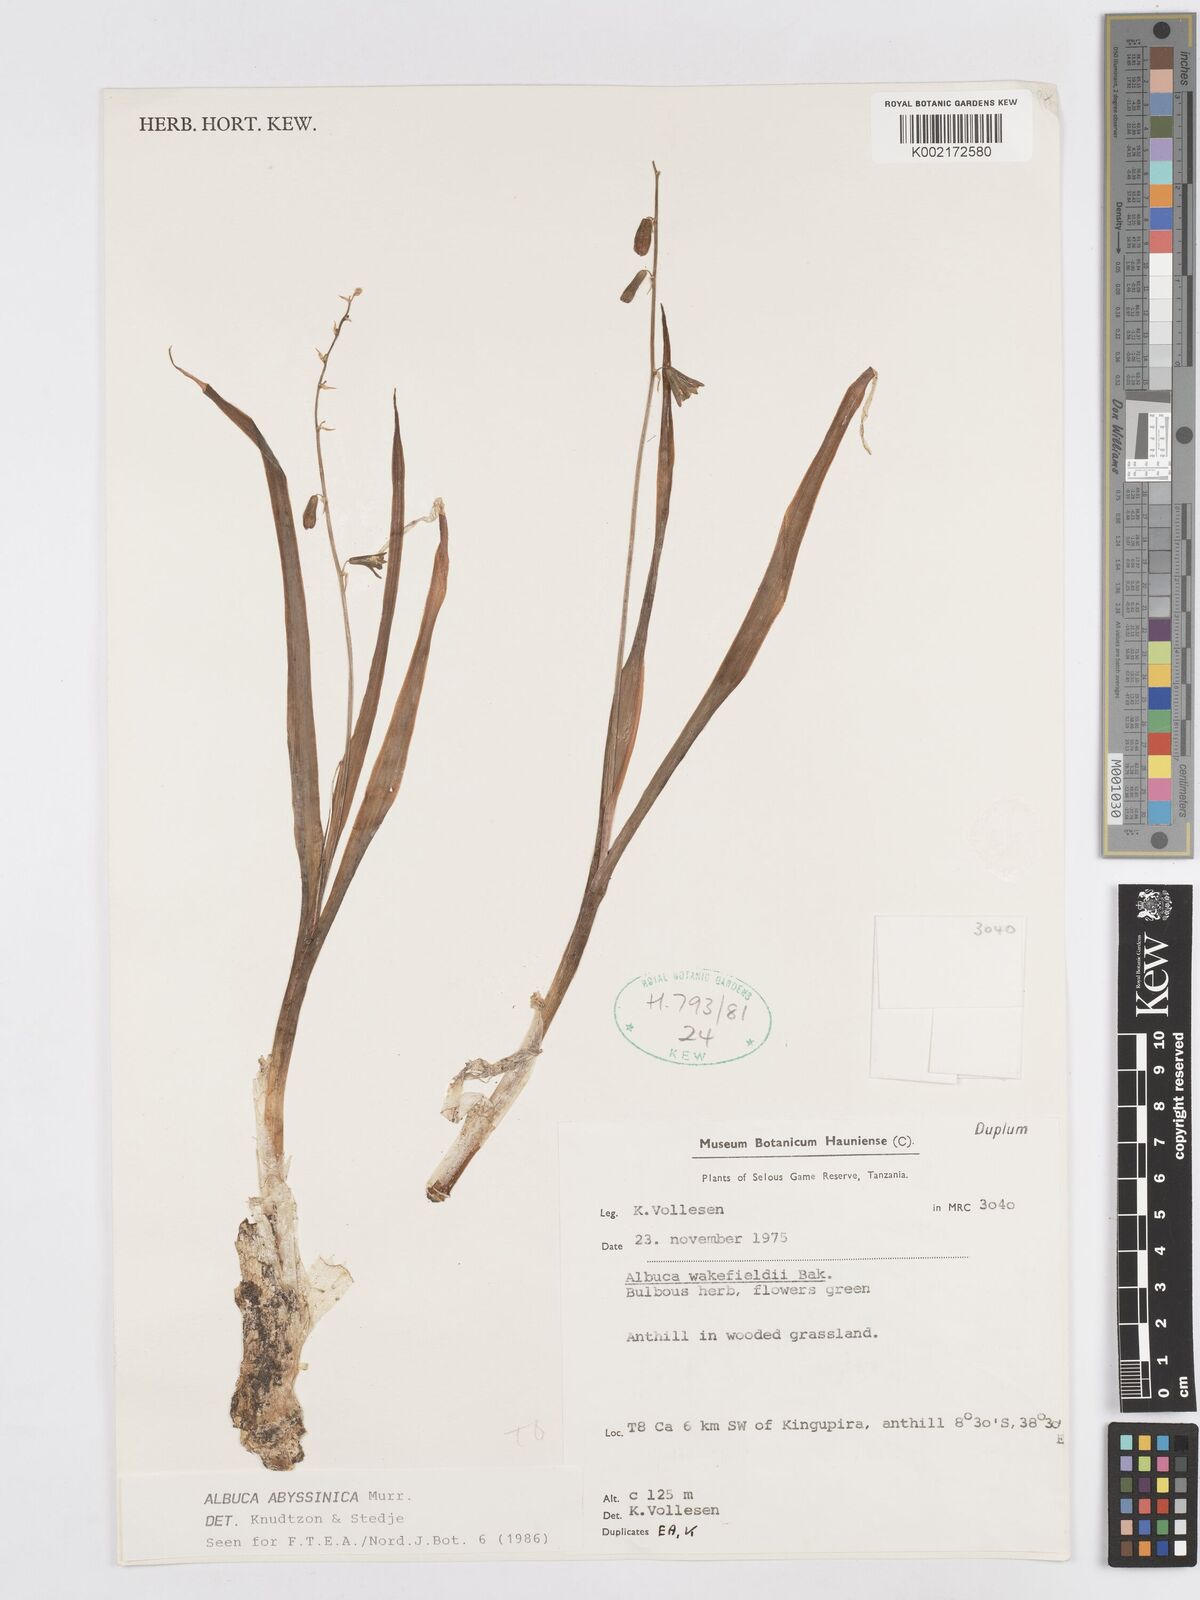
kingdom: Plantae
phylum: Tracheophyta
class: Liliopsida
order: Asparagales
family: Asparagaceae
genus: Albuca
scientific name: Albuca abyssinica
